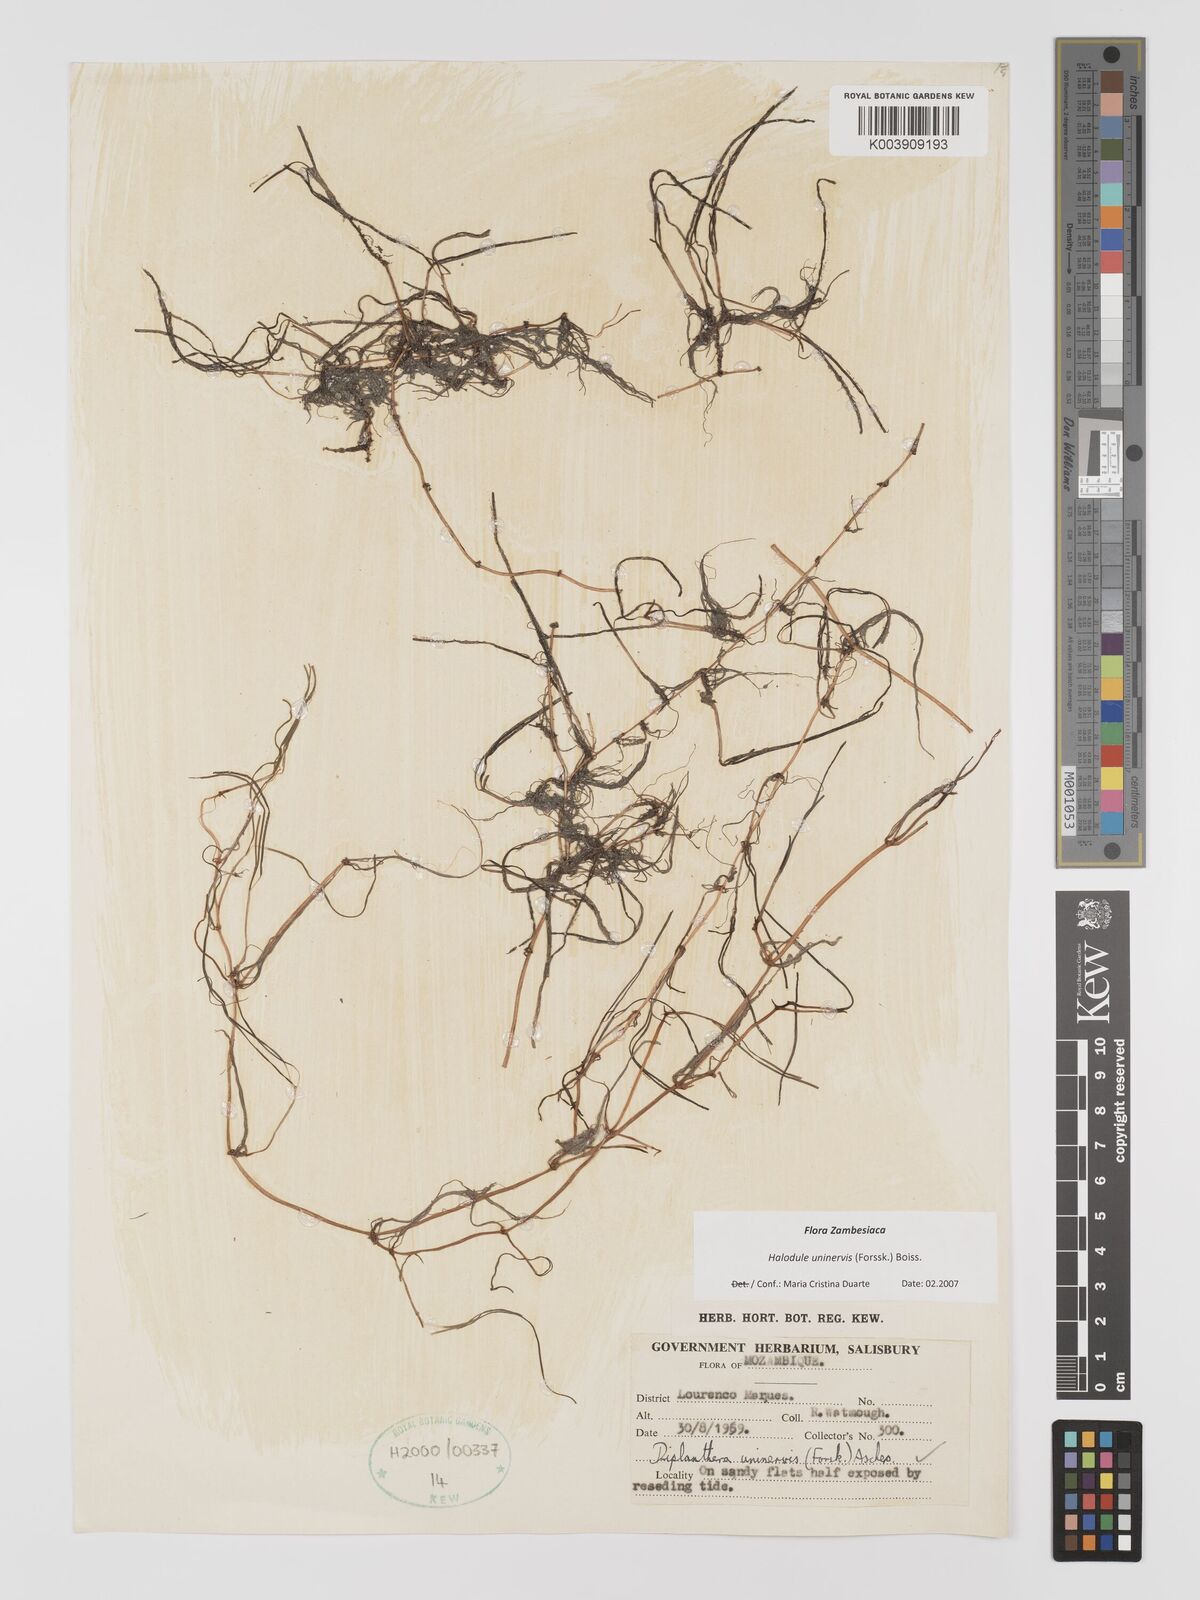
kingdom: Plantae
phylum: Tracheophyta
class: Liliopsida
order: Alismatales
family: Cymodoceaceae
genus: Halodule
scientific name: Halodule uninervis
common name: Narrowleaf seagrass
